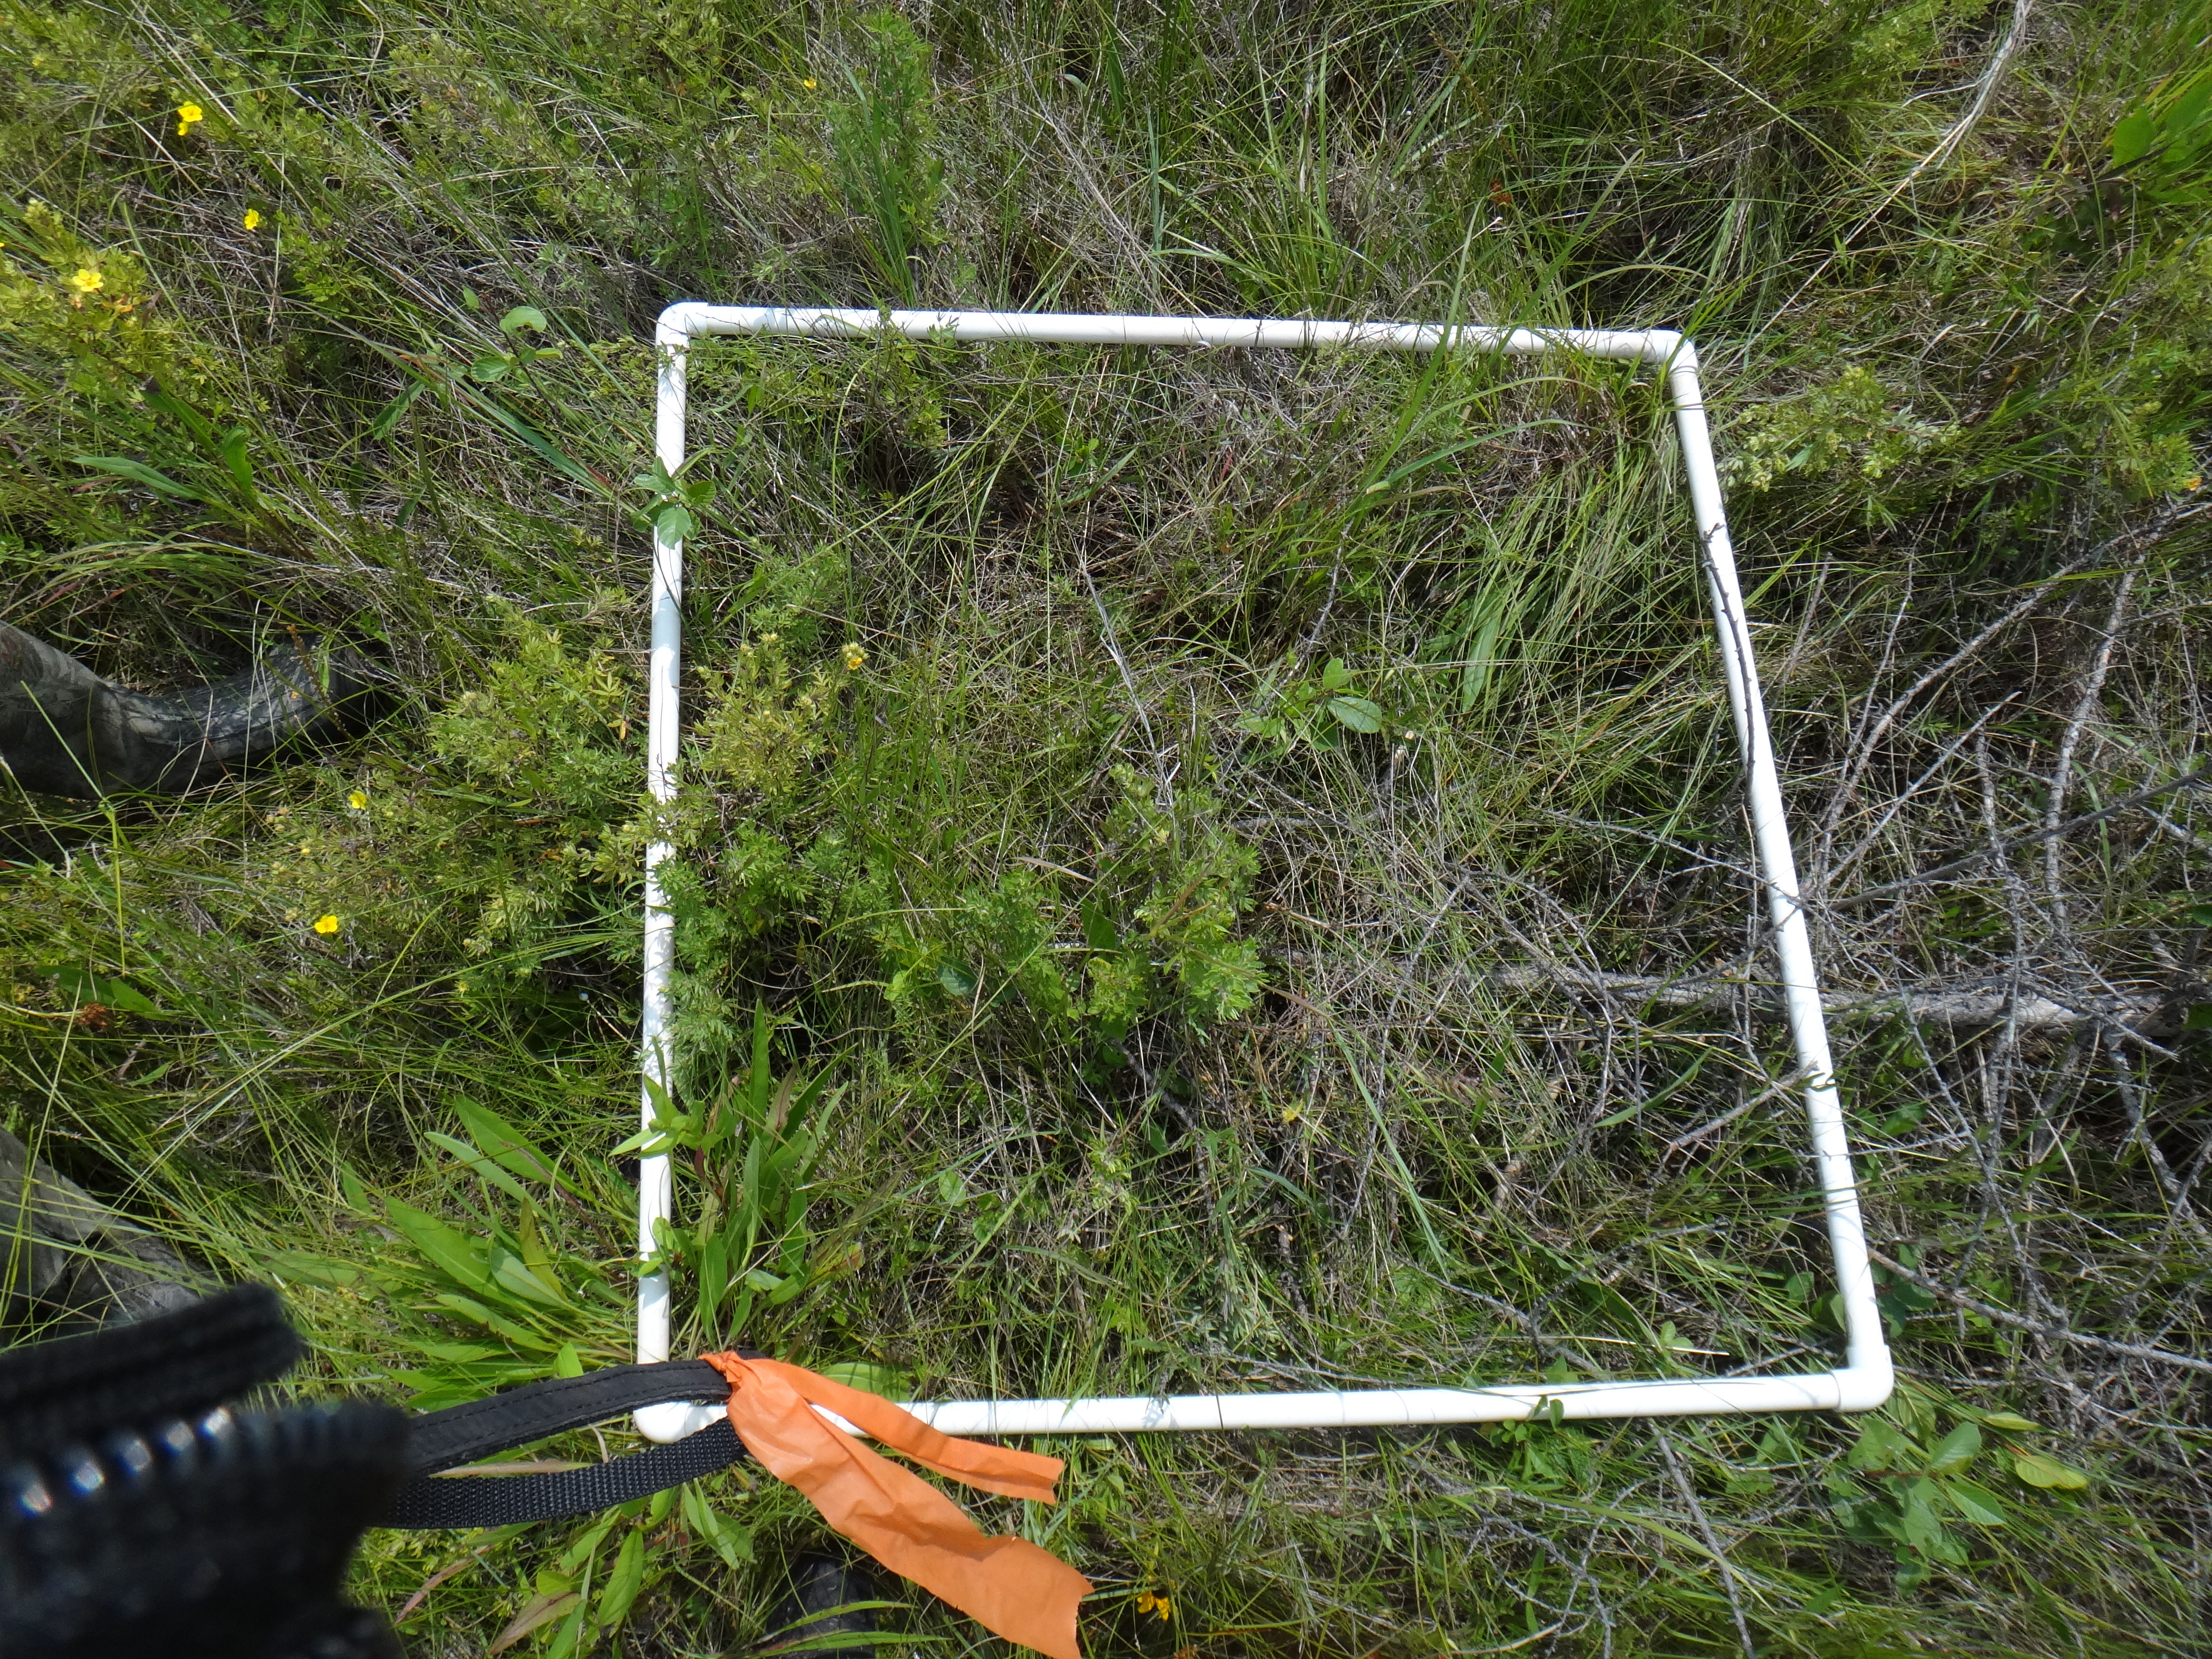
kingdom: Plantae
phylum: Tracheophyta
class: Liliopsida
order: Poales
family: Cyperaceae
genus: Eleocharis
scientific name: Eleocharis elliptica
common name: Capitate spikerush
